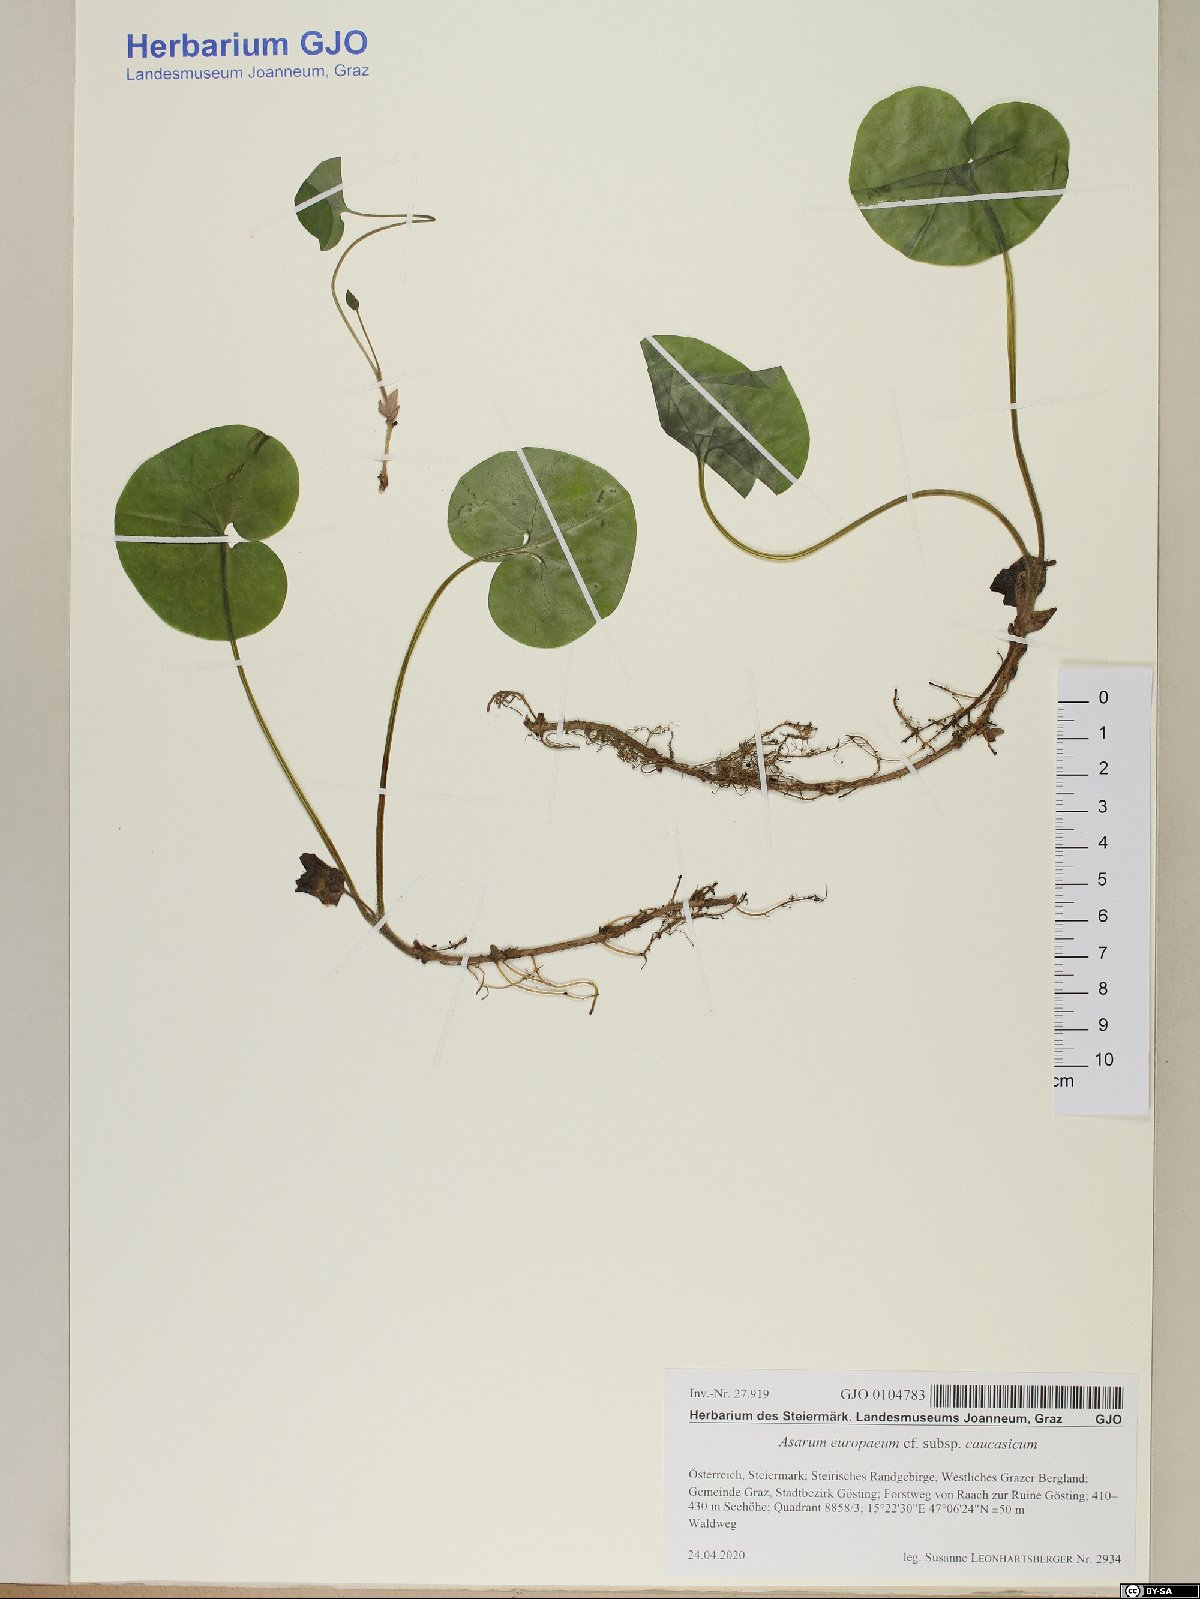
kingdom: Plantae
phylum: Tracheophyta
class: Magnoliopsida
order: Piperales
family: Aristolochiaceae
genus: Asarum
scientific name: Asarum europaeum
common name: Asarabacca
